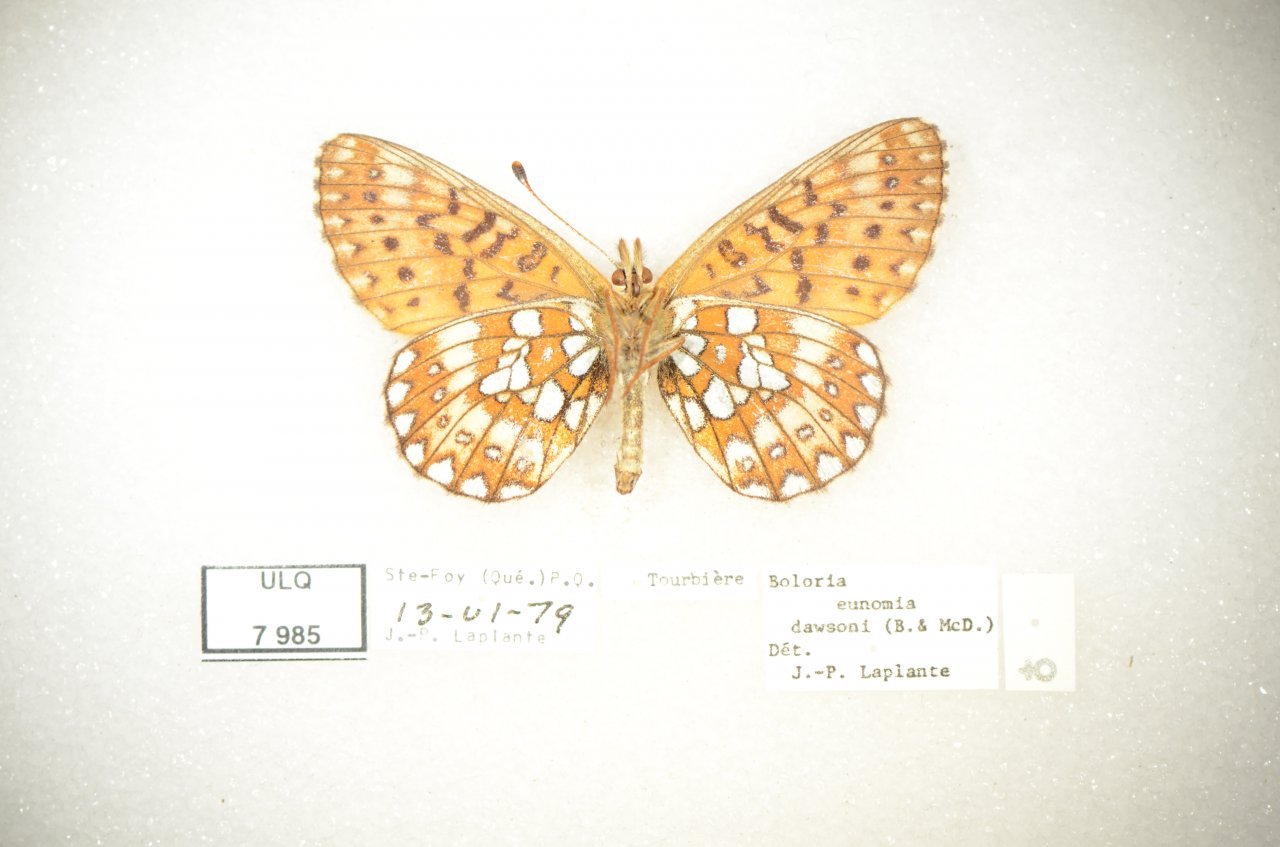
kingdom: Animalia
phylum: Arthropoda
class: Insecta
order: Lepidoptera
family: Nymphalidae
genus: Boloria
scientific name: Boloria eunomia
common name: Bog Fritillary
